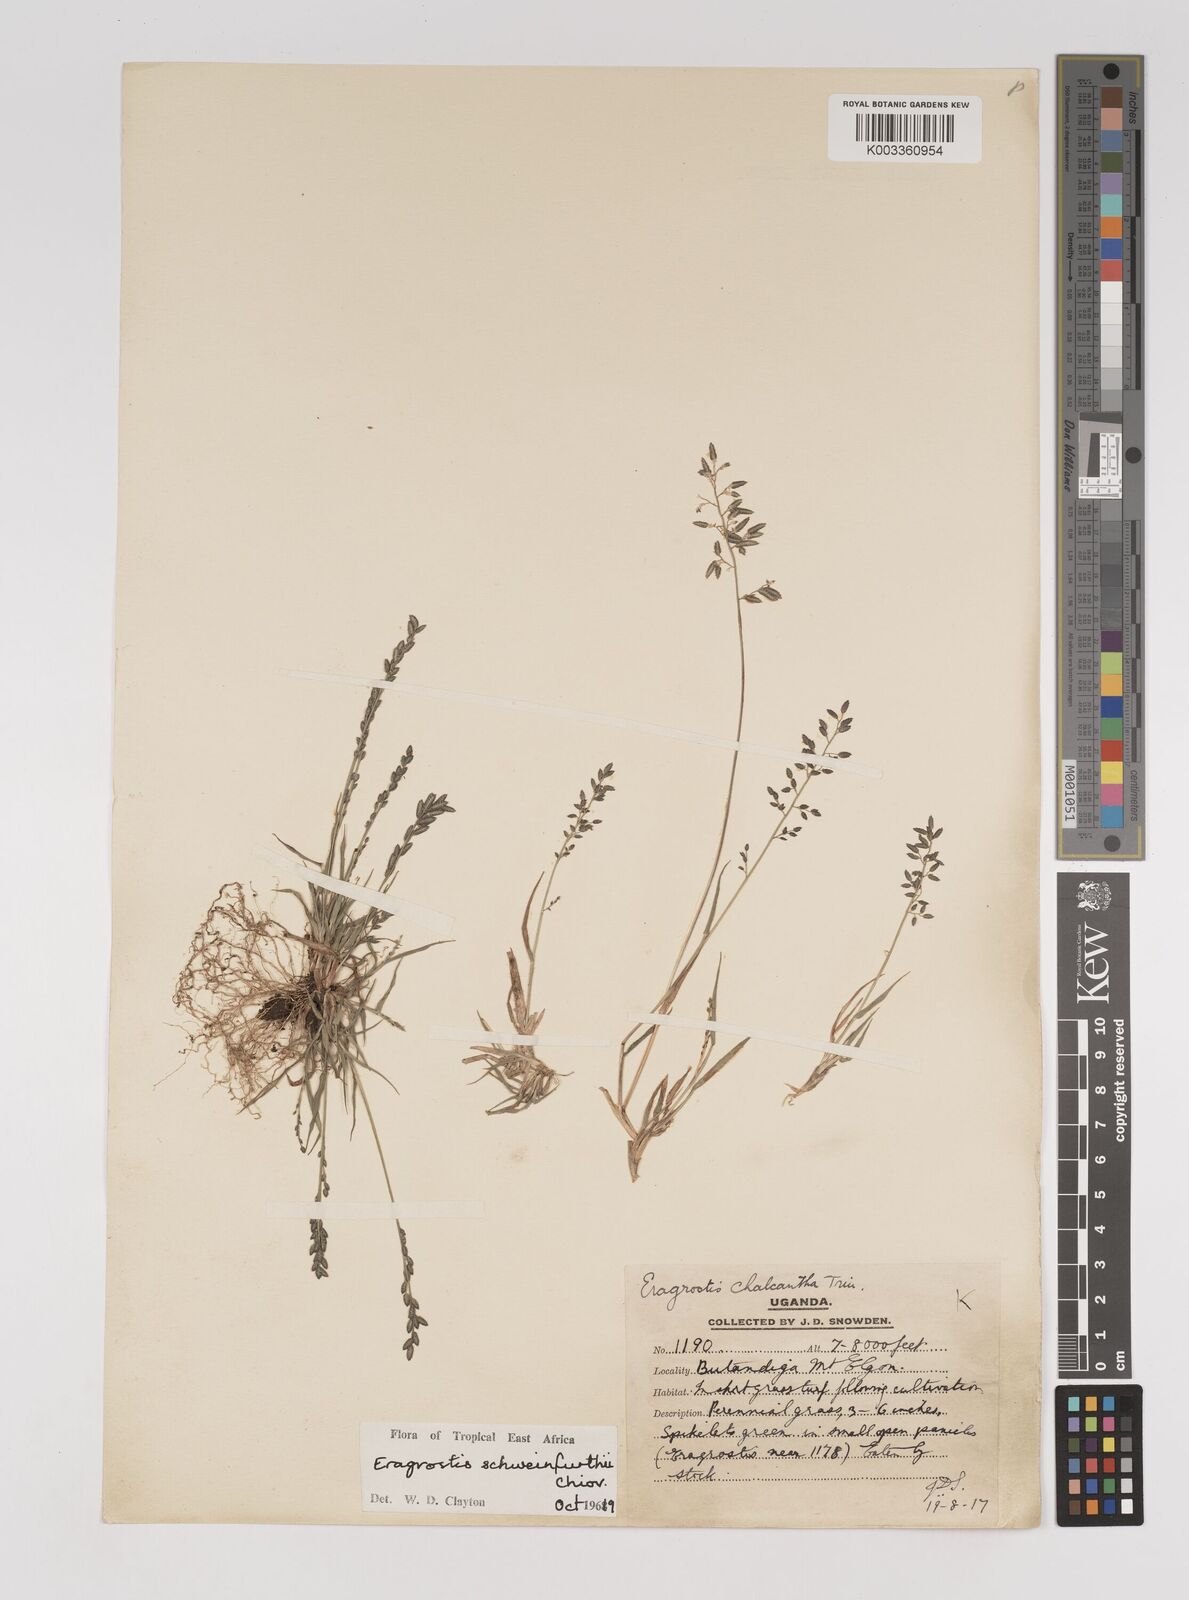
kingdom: Plantae
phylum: Tracheophyta
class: Liliopsida
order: Poales
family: Poaceae
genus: Eragrostis
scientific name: Eragrostis schweinfurthii
